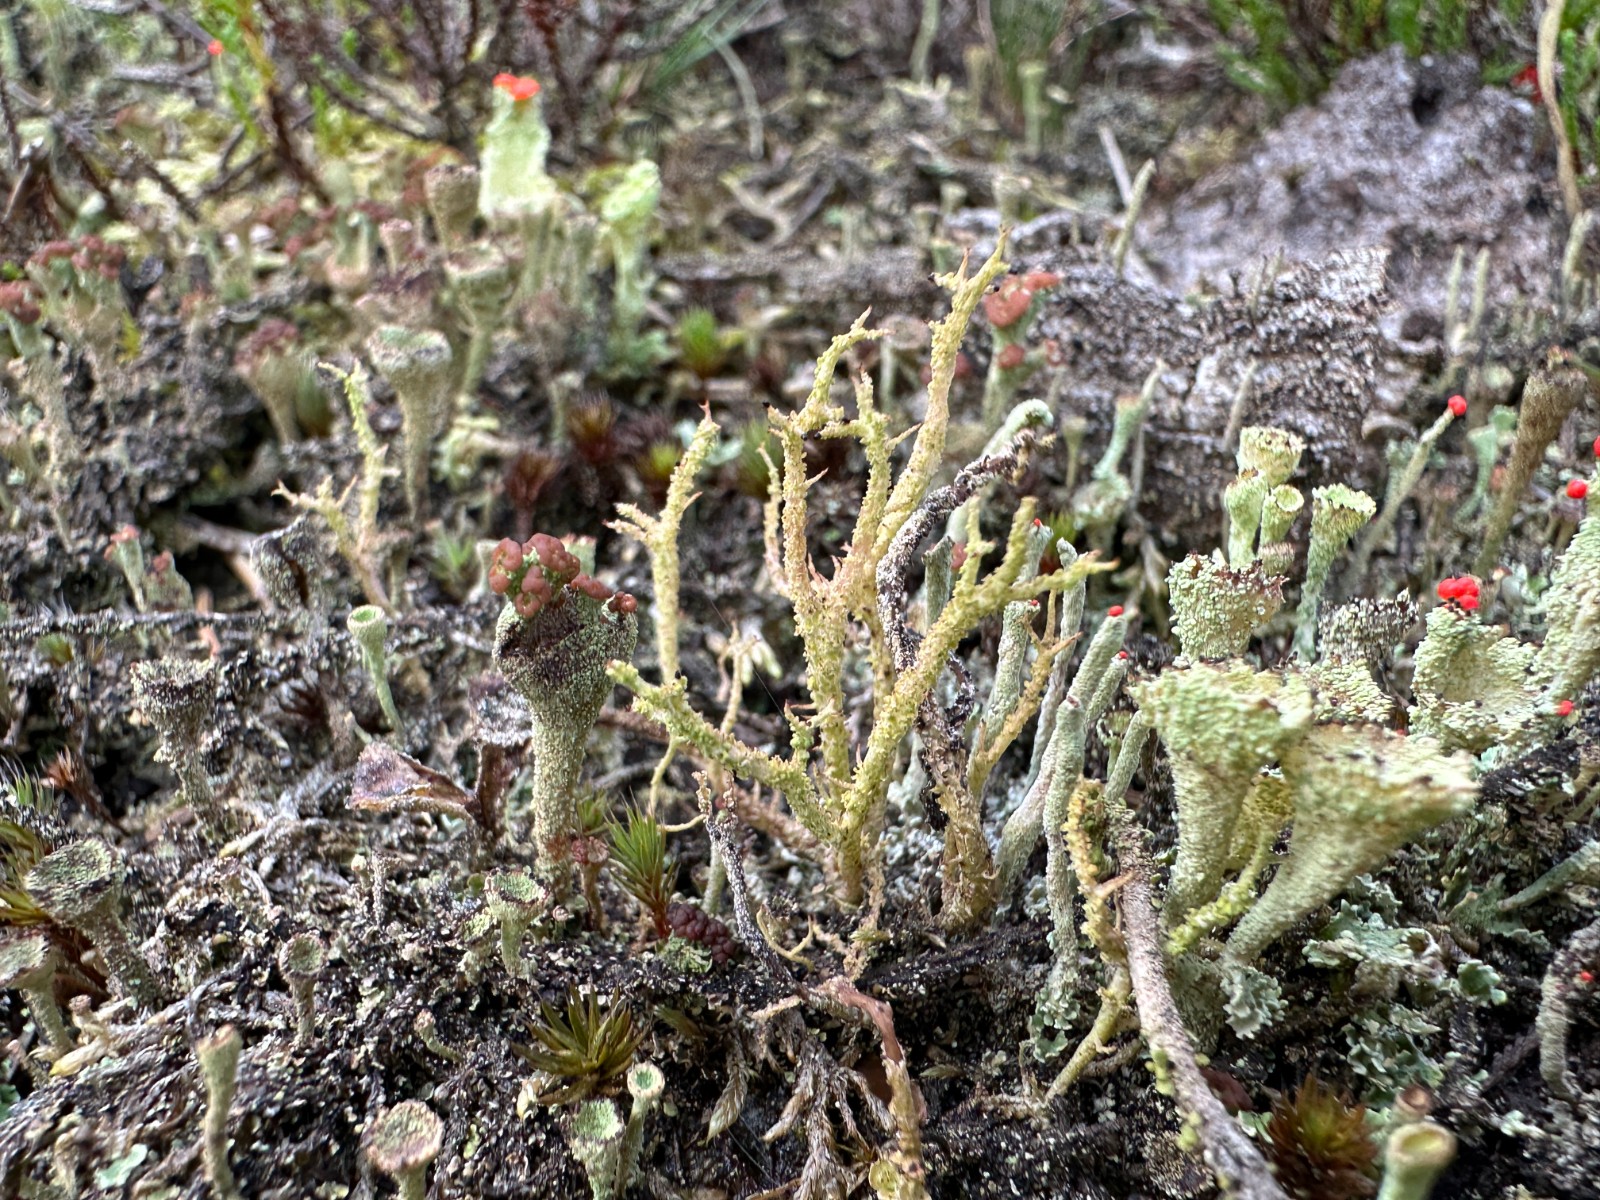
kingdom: Fungi
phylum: Ascomycota
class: Lecanoromycetes
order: Lecanorales
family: Cladoniaceae
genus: Cladonia
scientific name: Cladonia scabriuscula
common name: ru bægerlav
